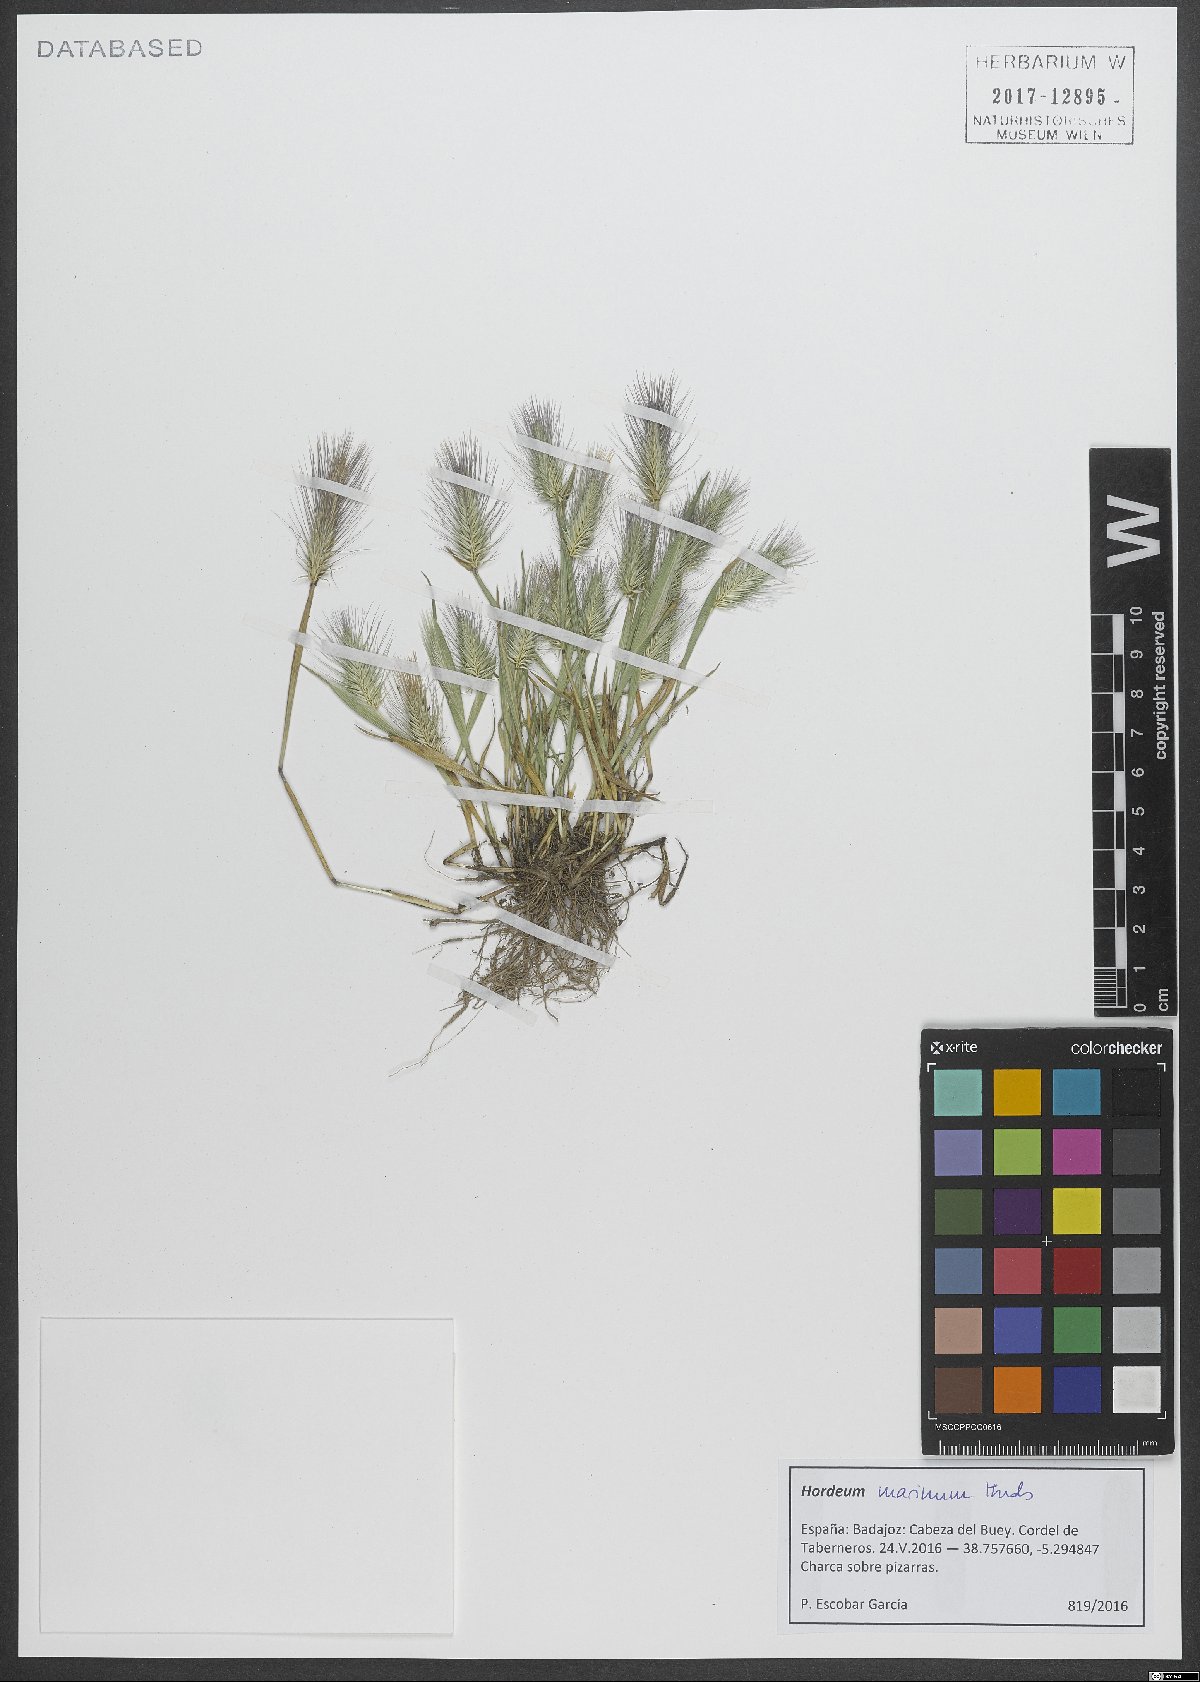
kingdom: Plantae
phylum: Tracheophyta
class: Liliopsida
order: Poales
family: Poaceae
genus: Hordeum
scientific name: Hordeum marinum
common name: Sea barley
